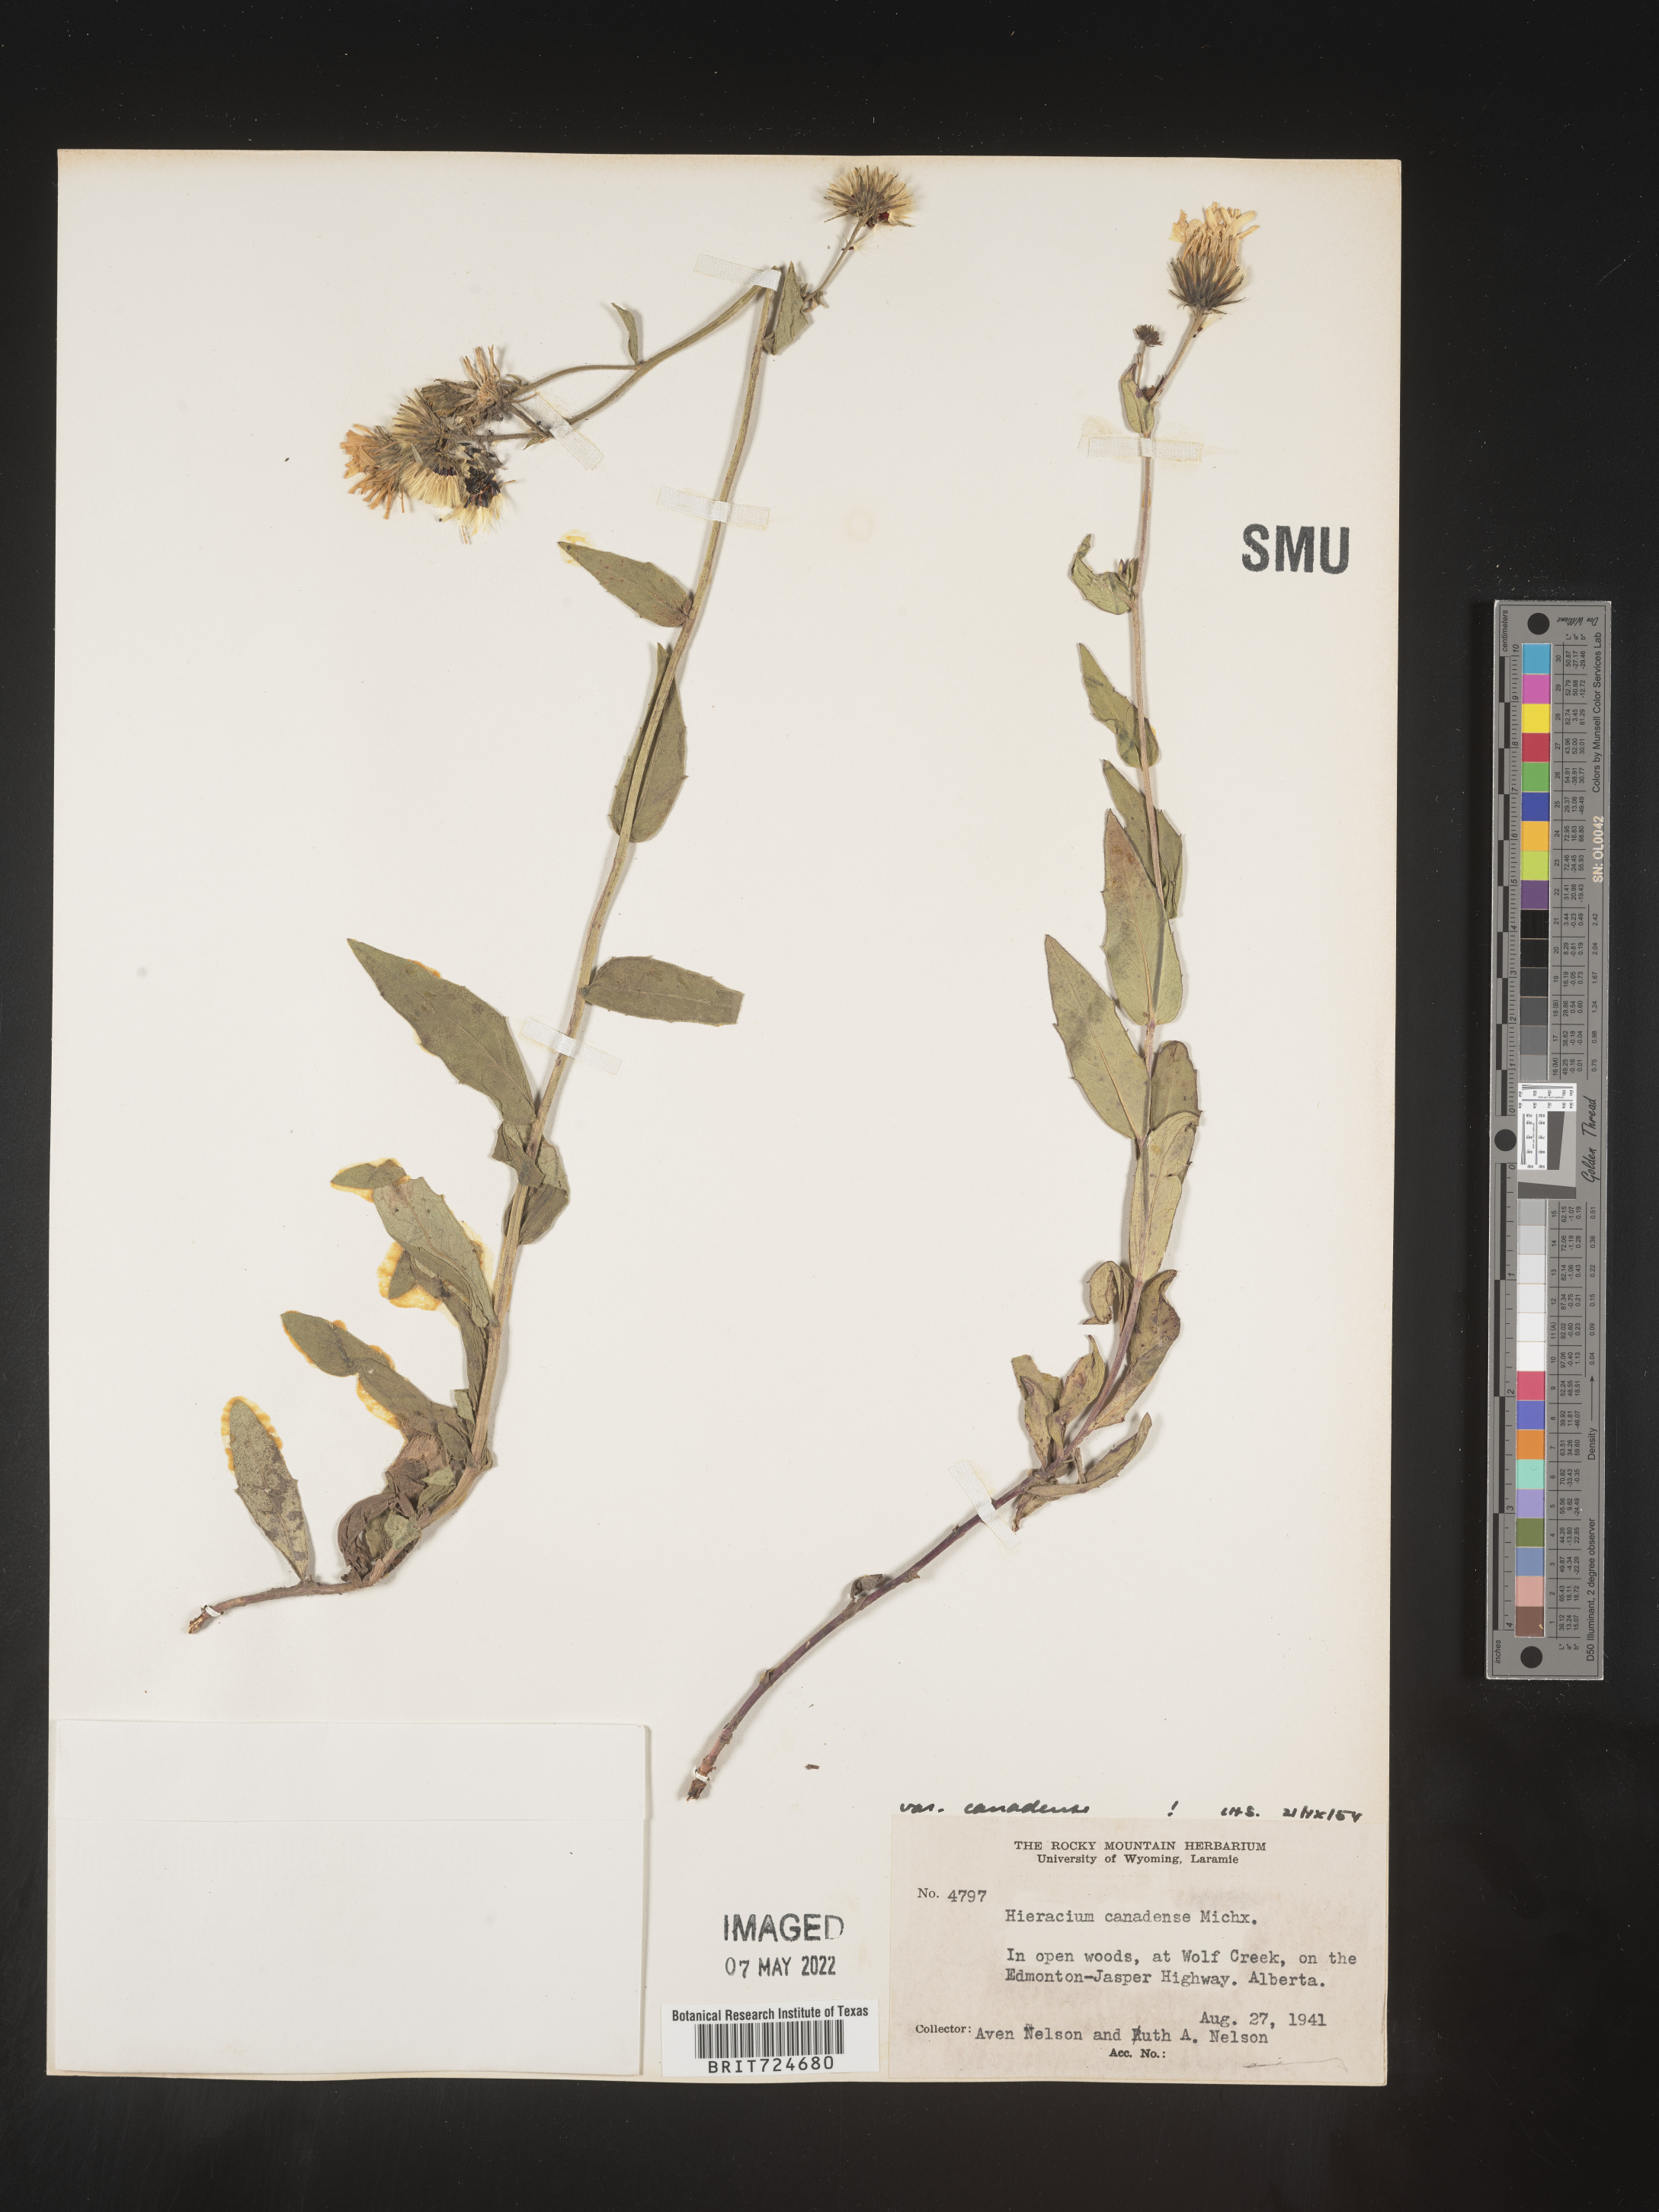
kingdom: Plantae
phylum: Tracheophyta
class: Magnoliopsida
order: Asterales
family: Asteraceae
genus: Hieracium
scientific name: Hieracium
